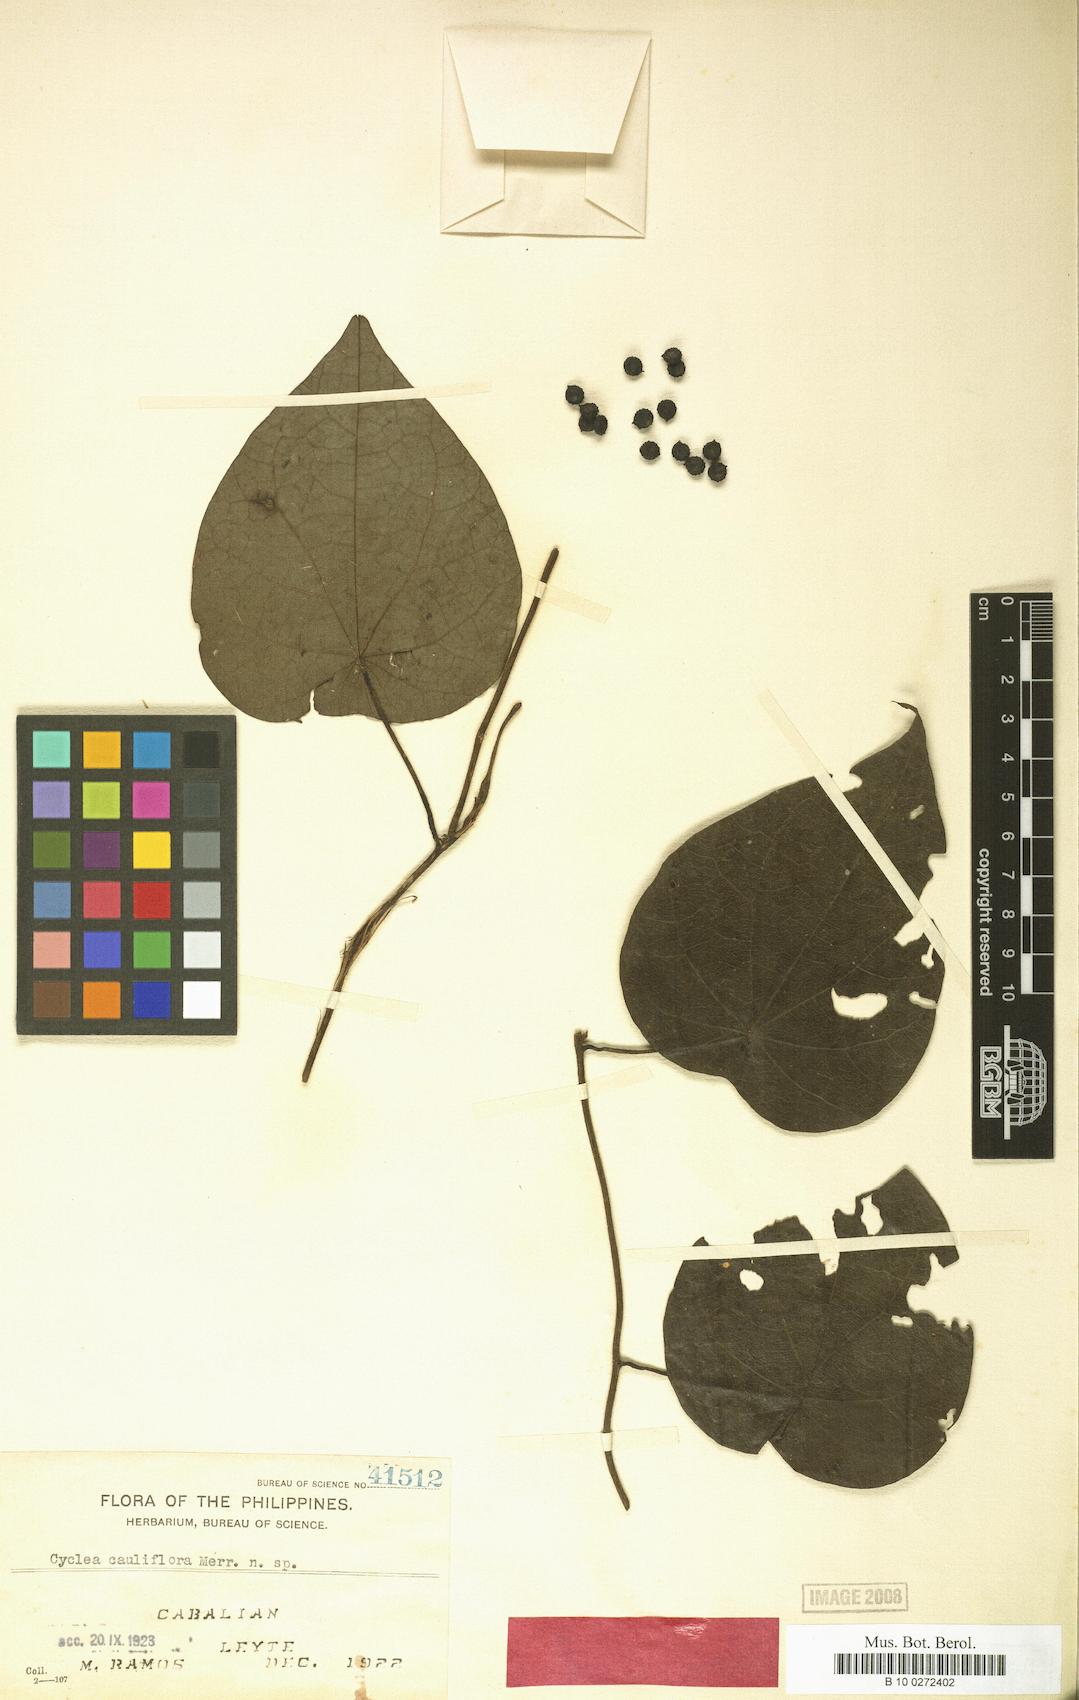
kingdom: Plantae
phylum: Tracheophyta
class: Magnoliopsida
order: Ranunculales
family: Menispermaceae
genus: Cyclea
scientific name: Cyclea cauliflora
